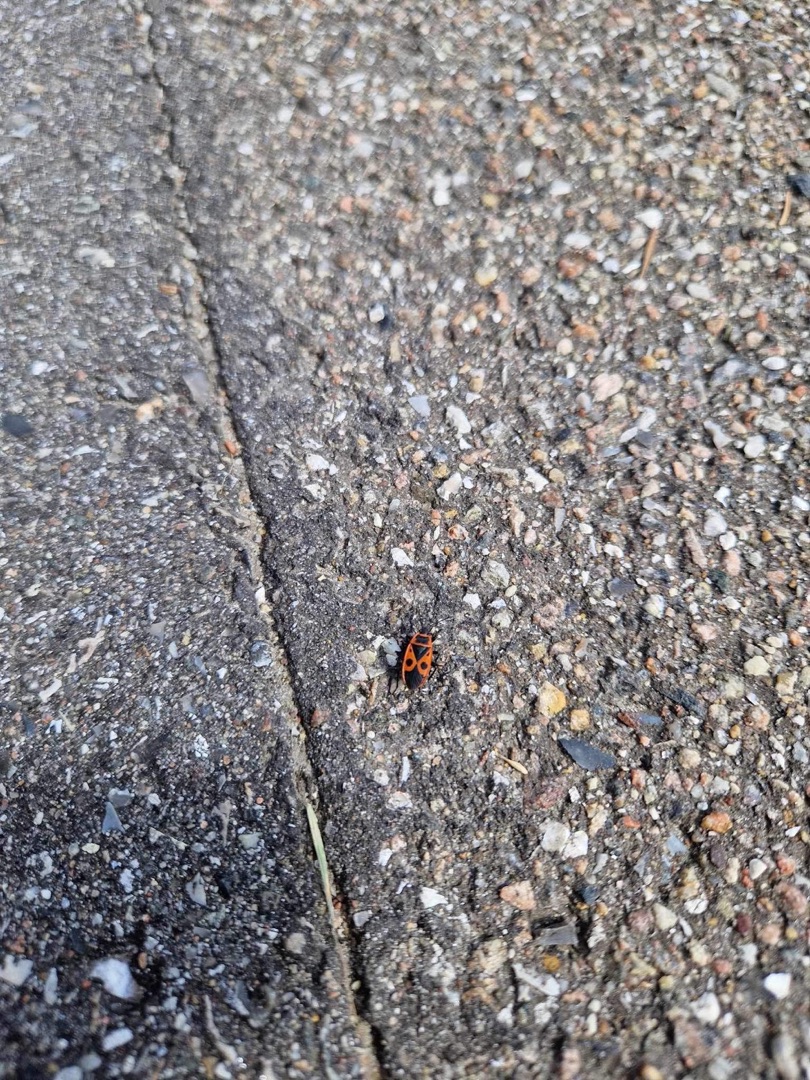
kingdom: Animalia
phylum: Arthropoda
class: Insecta
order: Hemiptera
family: Pyrrhocoridae
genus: Pyrrhocoris
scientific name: Pyrrhocoris apterus
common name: Ildtæge
